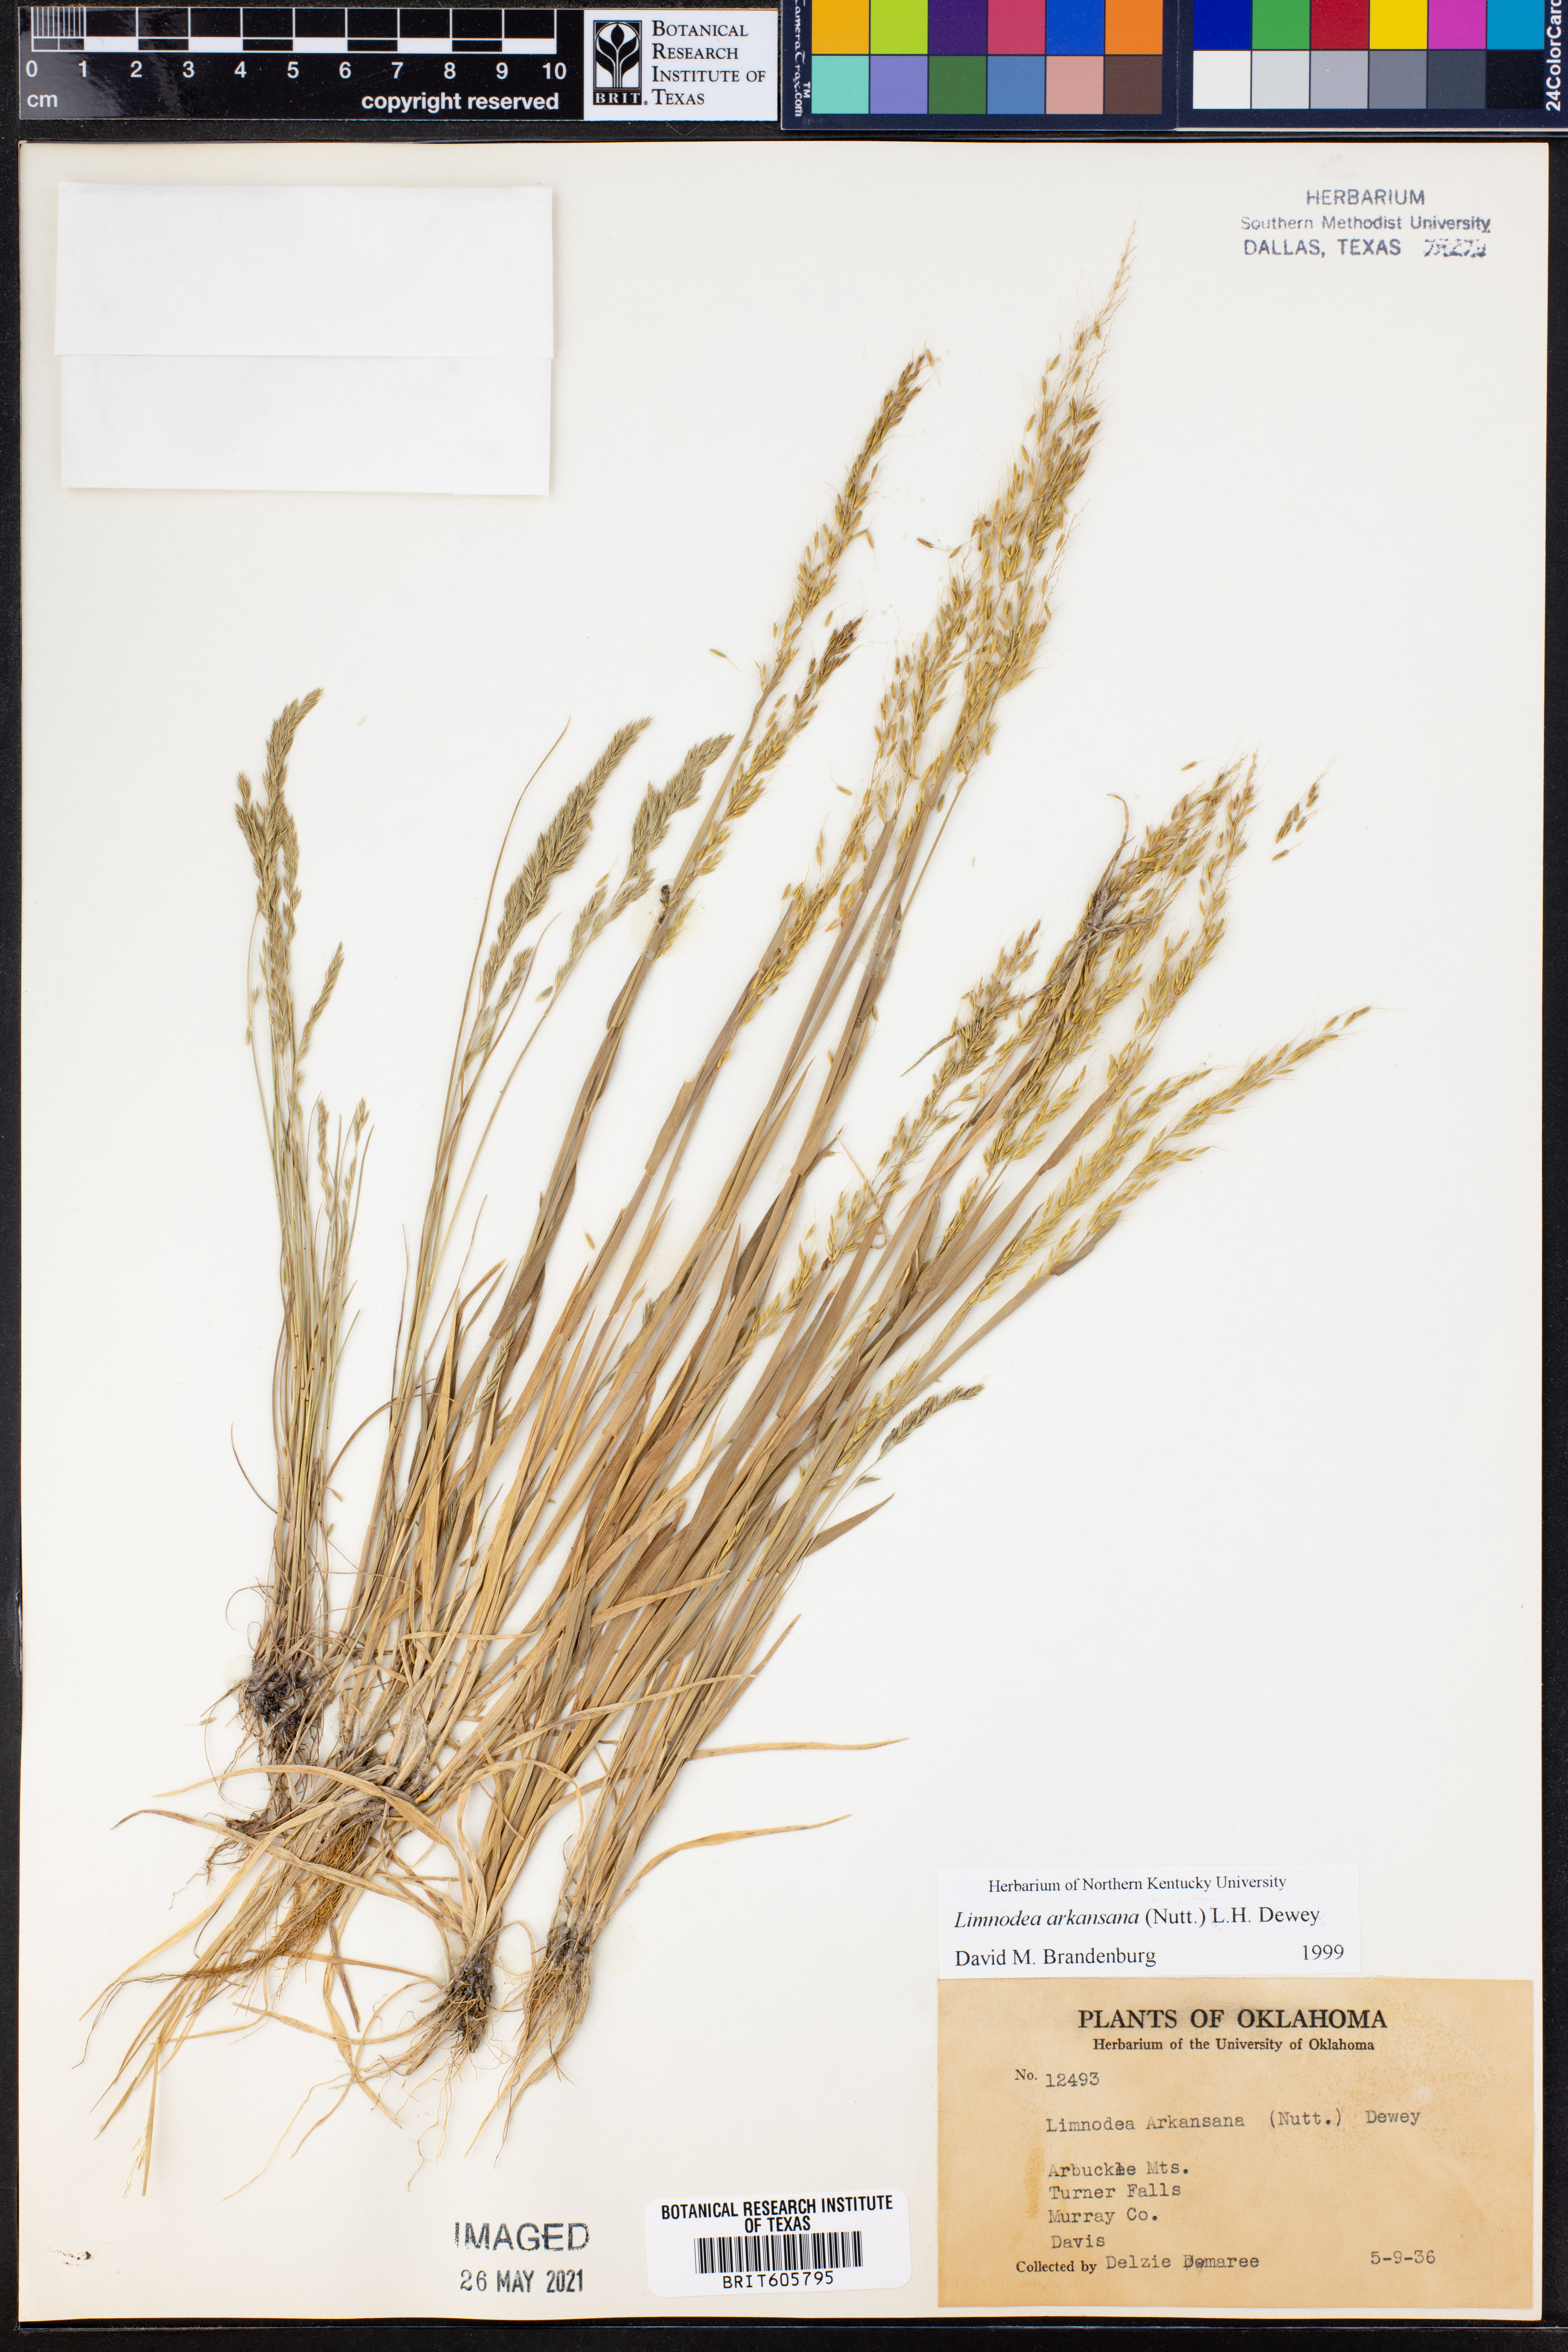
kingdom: Plantae
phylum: Tracheophyta
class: Liliopsida
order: Poales
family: Poaceae
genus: Limnodea
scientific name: Limnodea arkansana
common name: Ozark-grass
